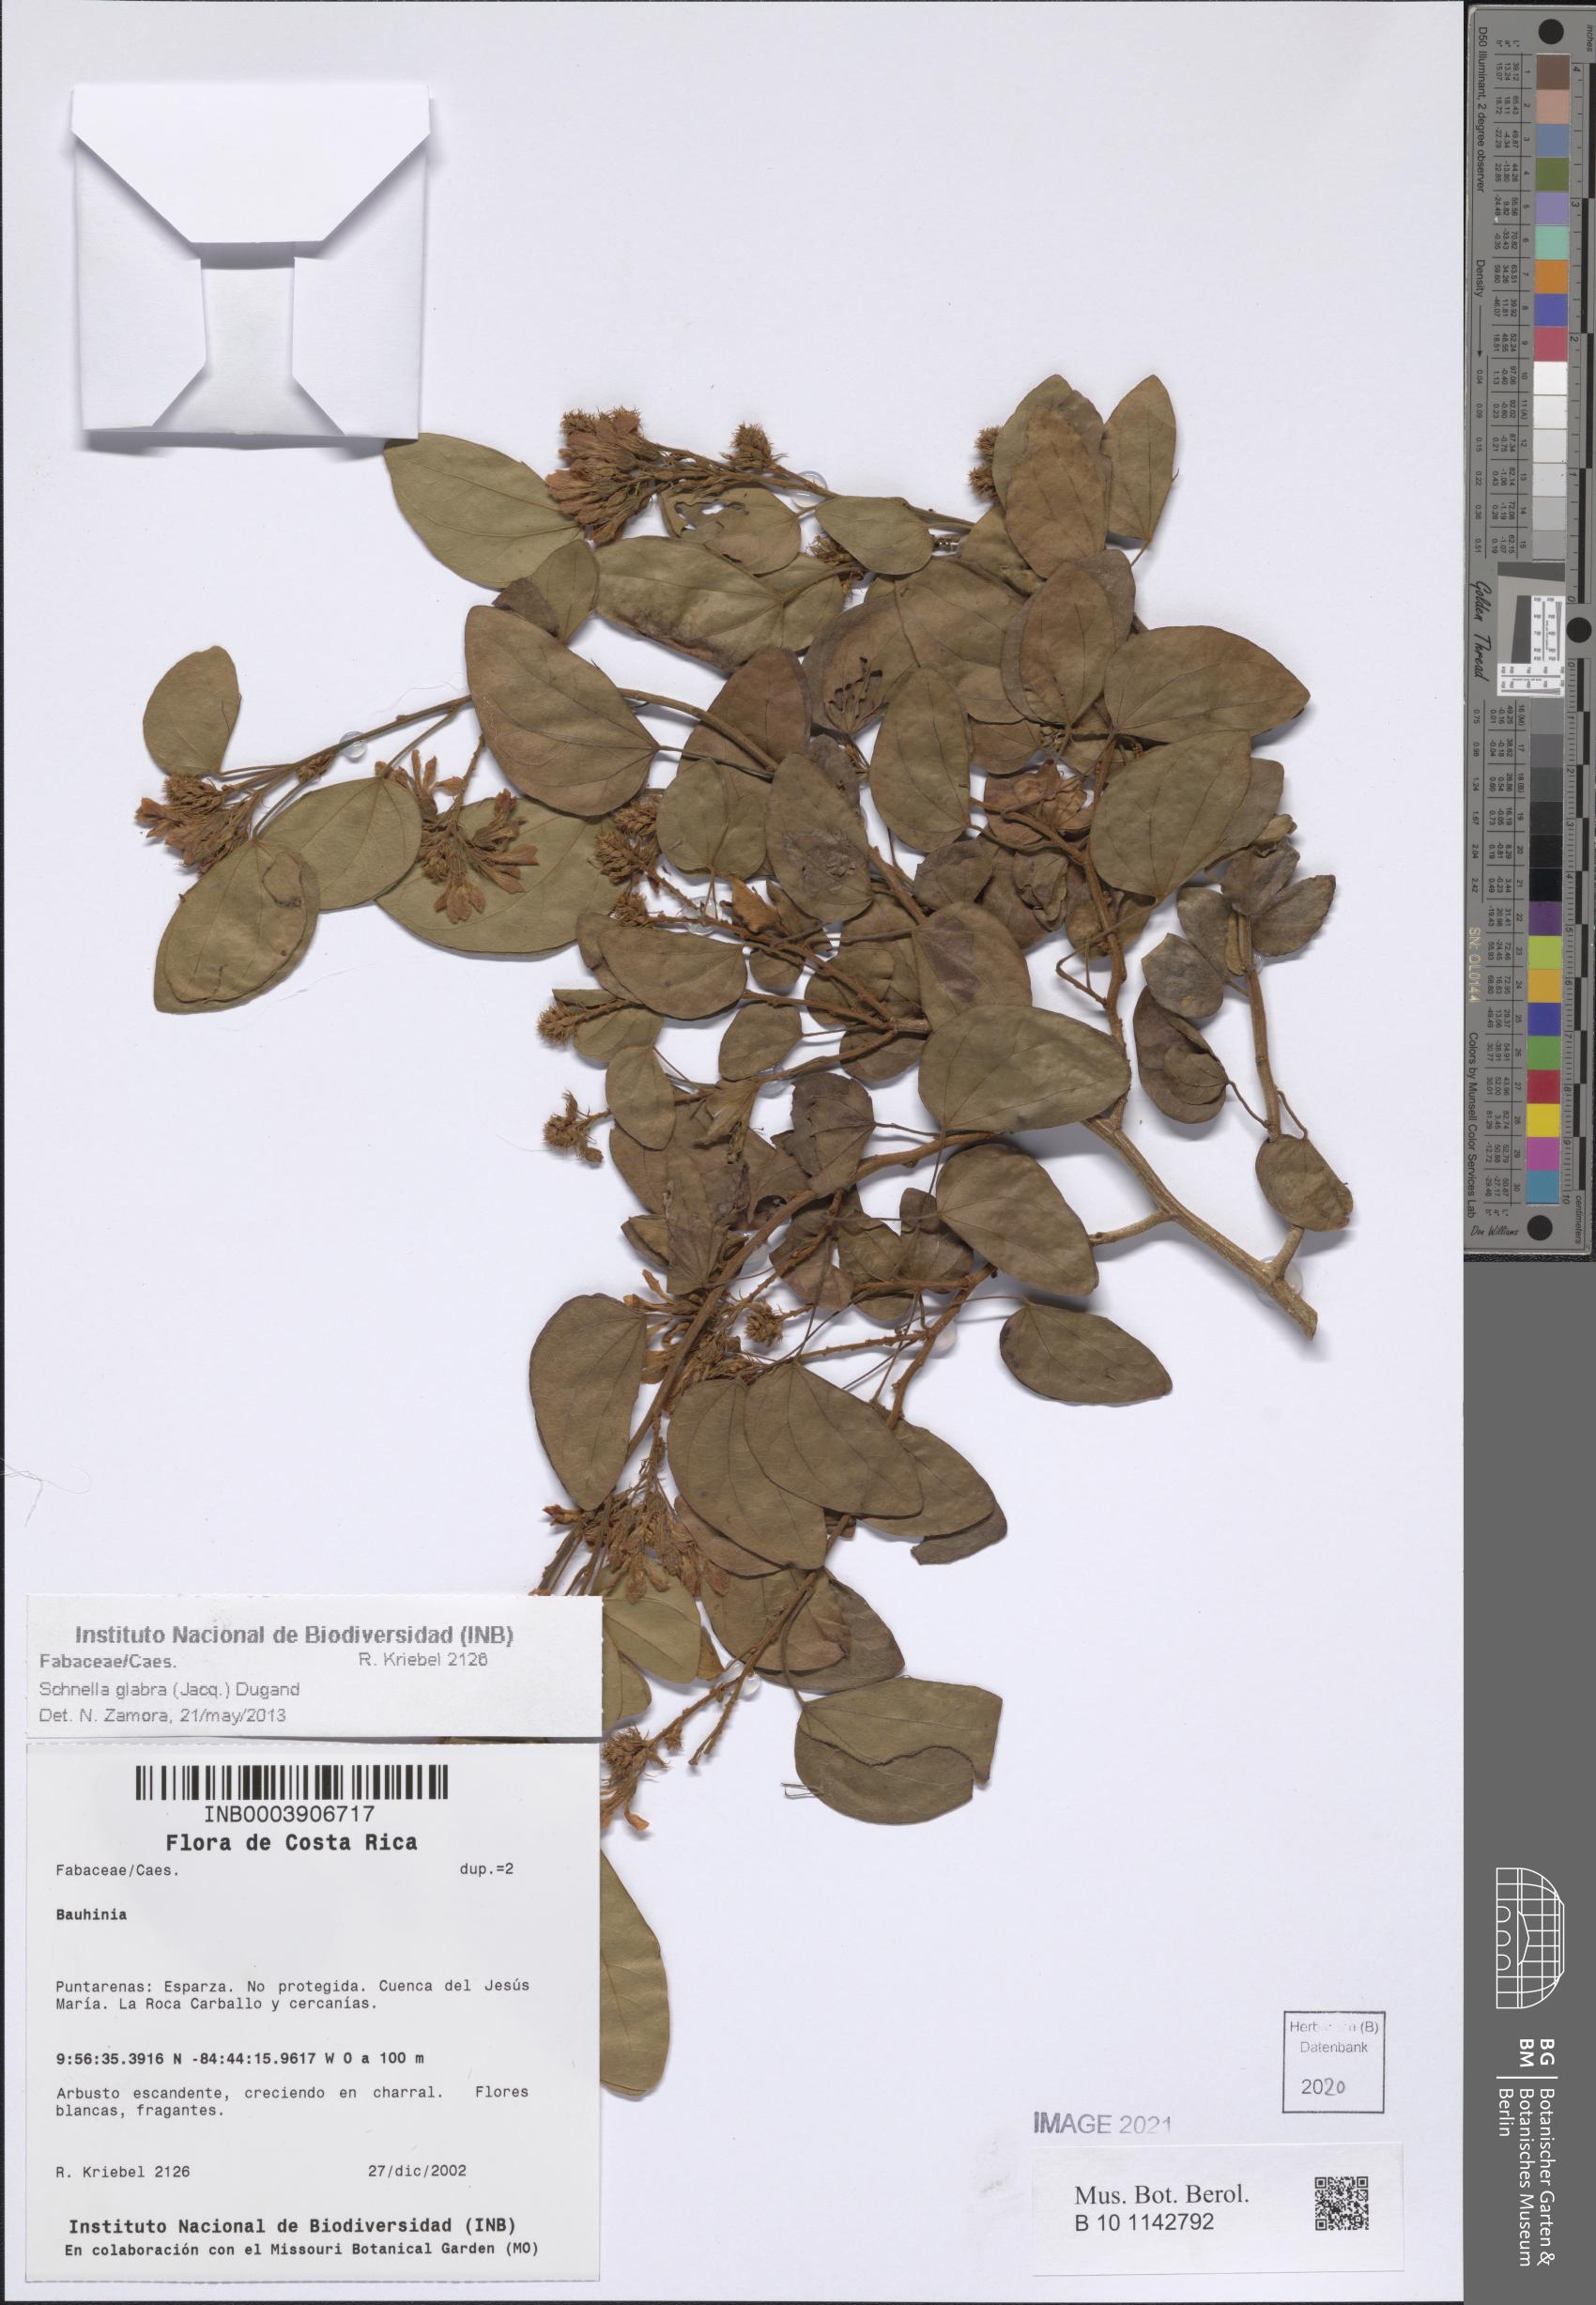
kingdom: Plantae
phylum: Tracheophyta
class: Magnoliopsida
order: Fabales
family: Fabaceae
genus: Schnella
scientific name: Schnella glabra
